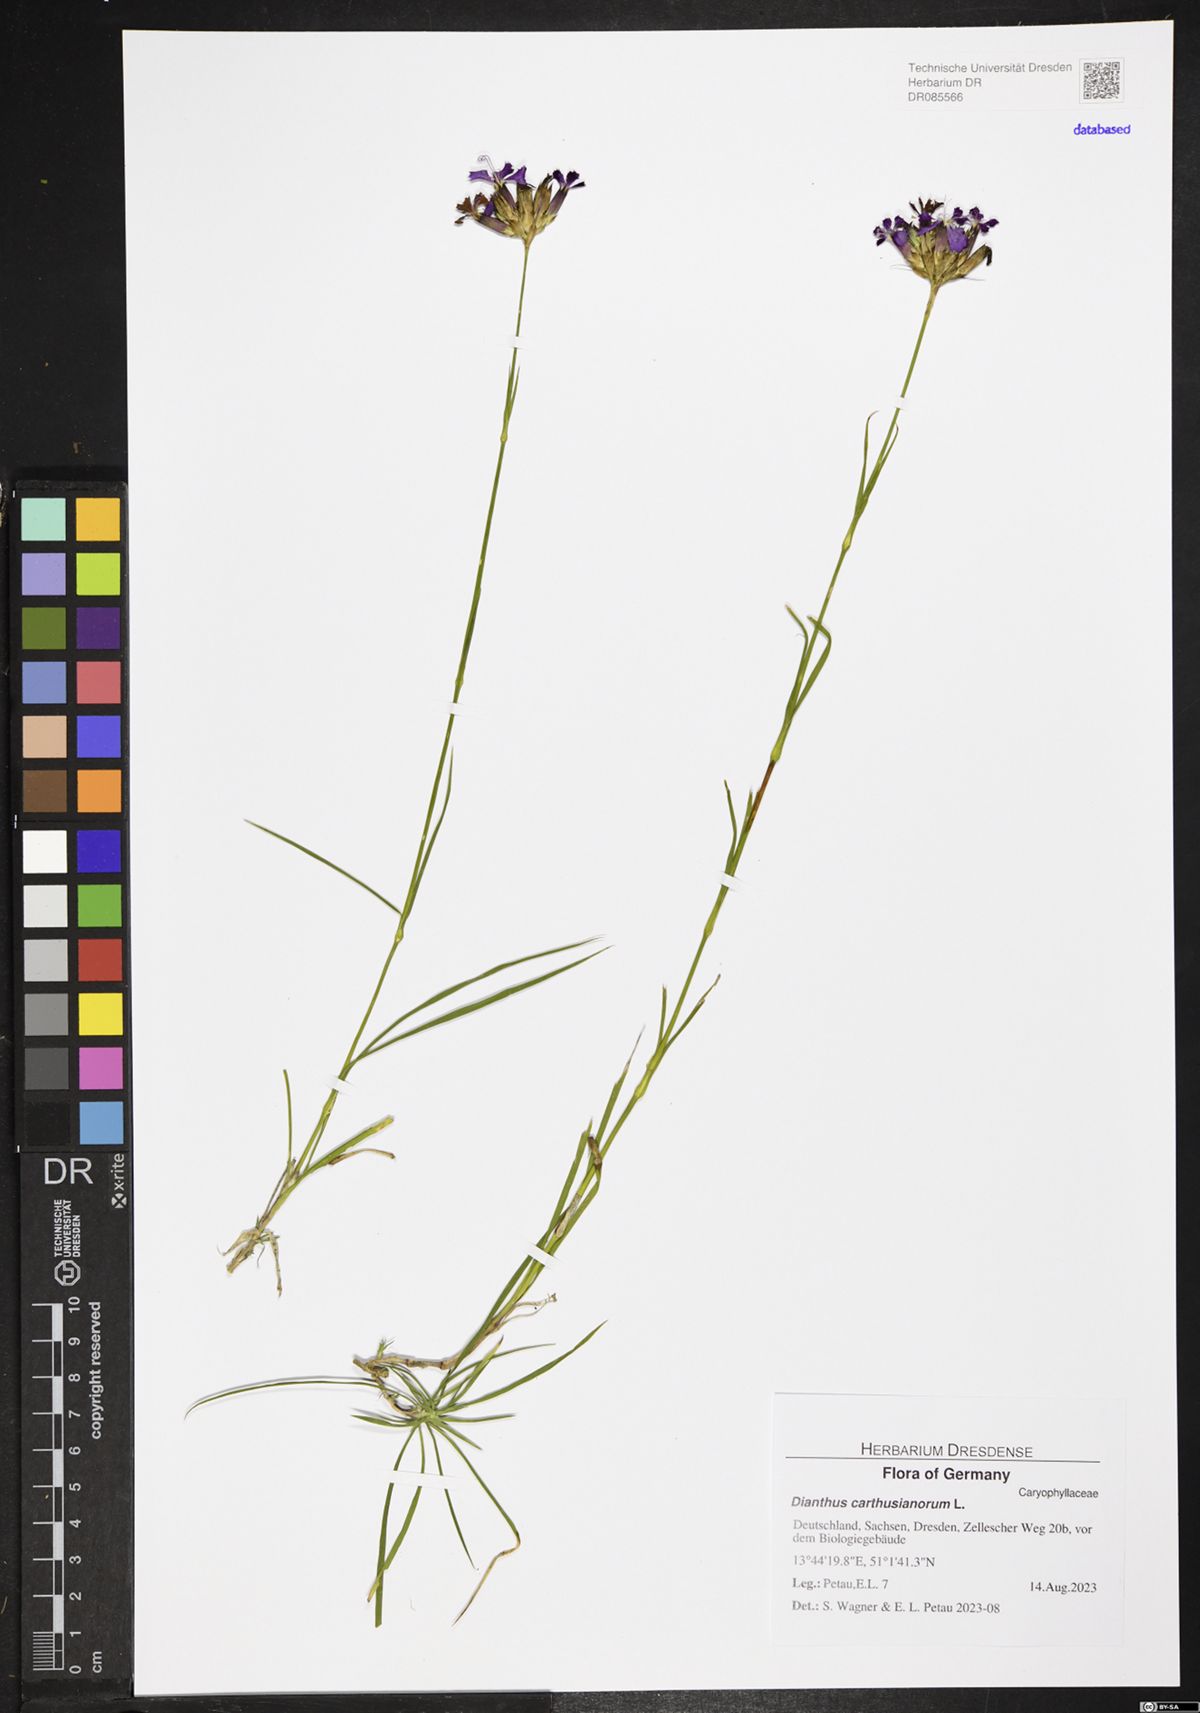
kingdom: Plantae
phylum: Tracheophyta
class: Magnoliopsida
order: Caryophyllales
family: Caryophyllaceae
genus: Dianthus
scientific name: Dianthus carthusianorum
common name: Carthusian pink
